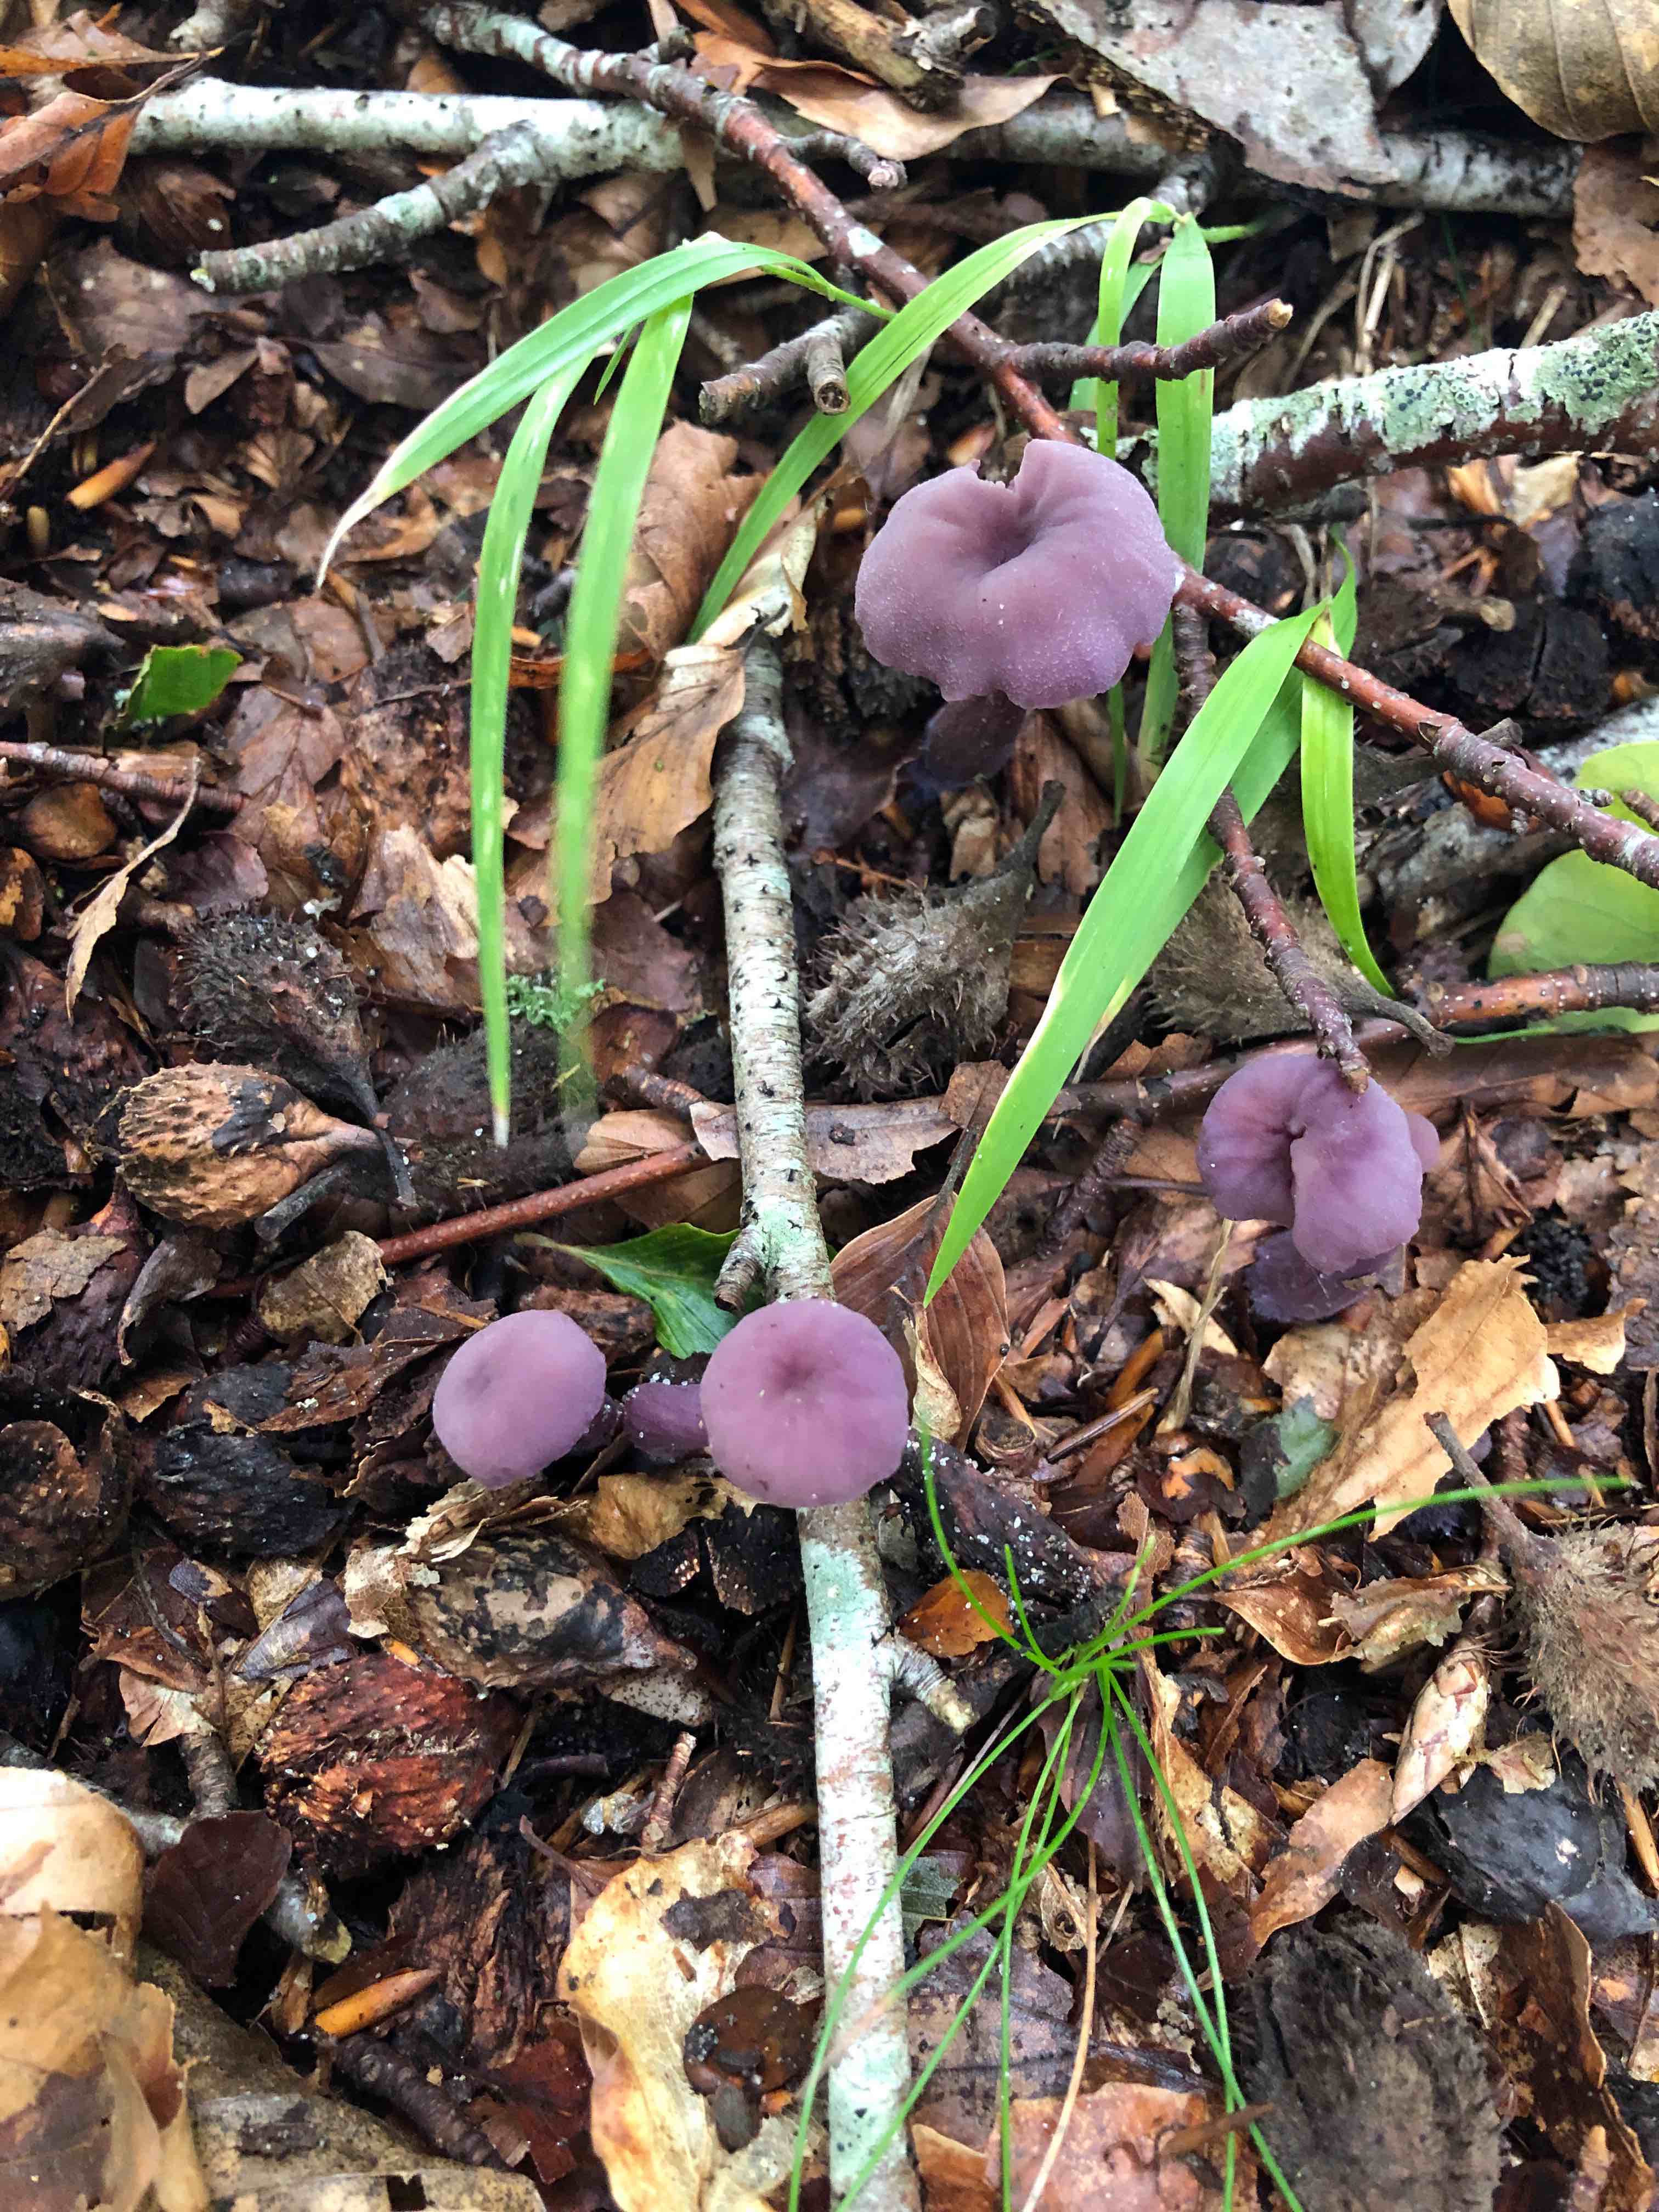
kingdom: Fungi
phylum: Basidiomycota
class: Agaricomycetes
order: Agaricales
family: Hydnangiaceae
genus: Laccaria
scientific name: Laccaria amethystina
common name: violet ametysthat
